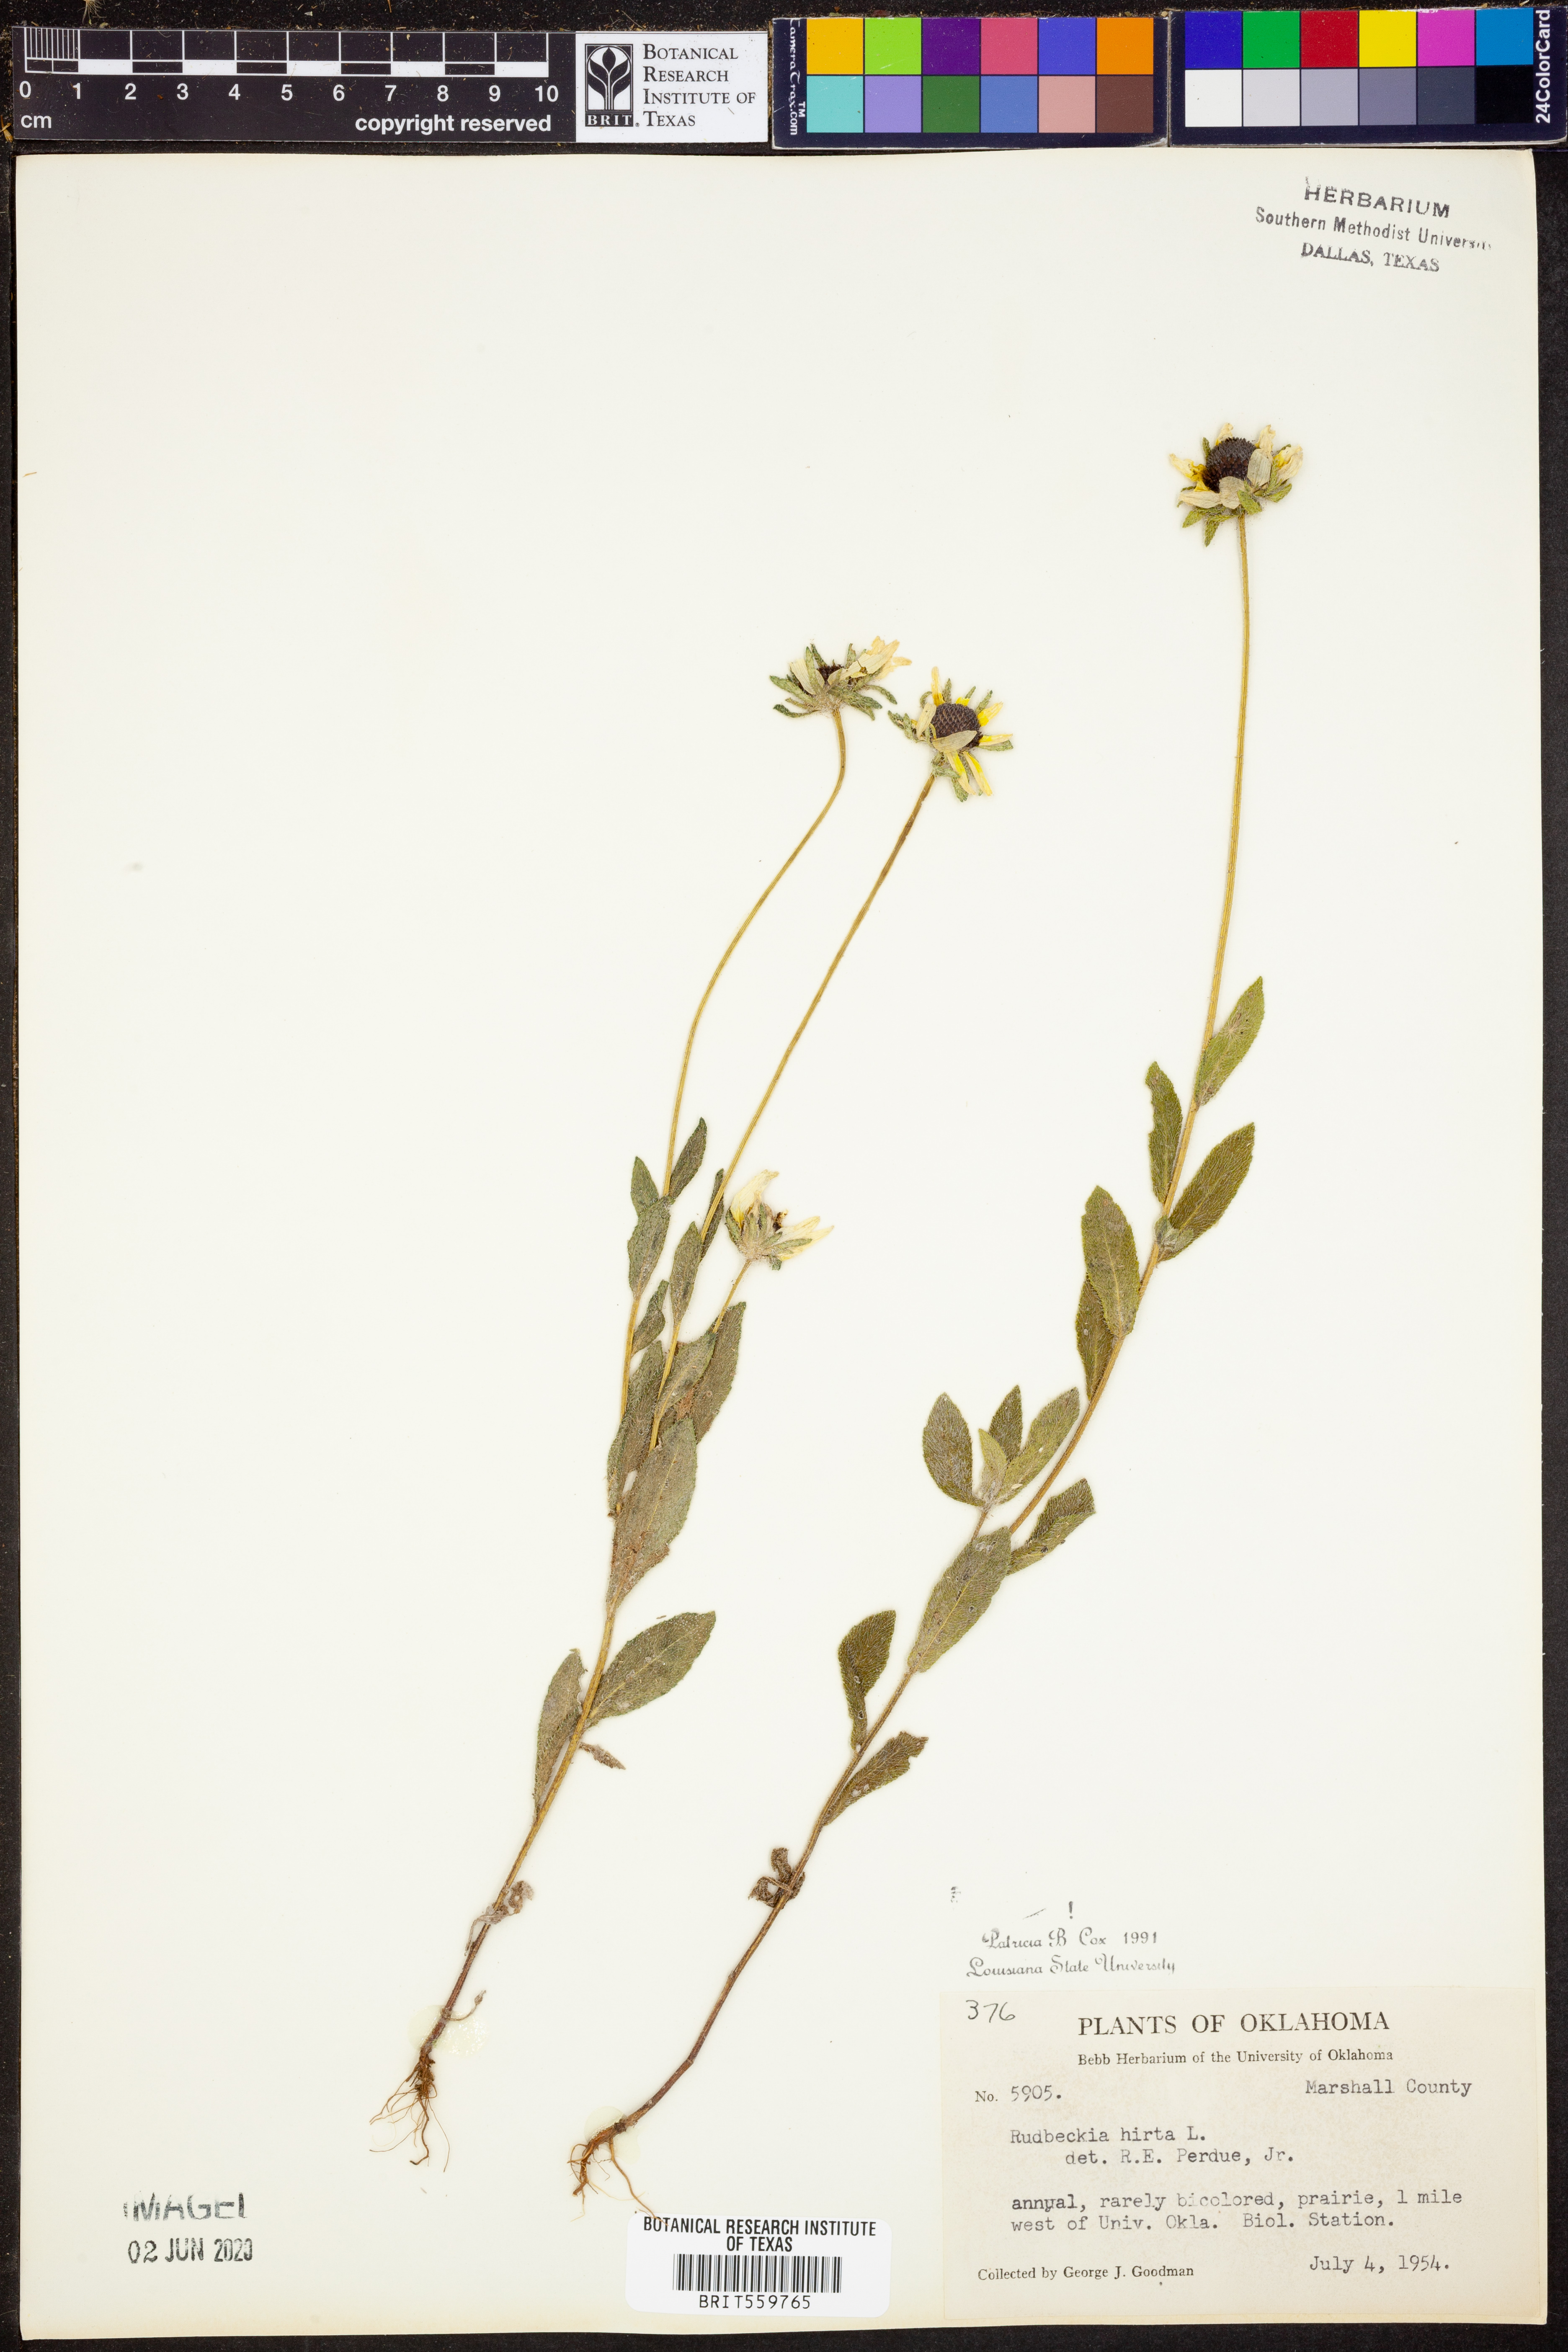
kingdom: Plantae
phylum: Tracheophyta
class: Magnoliopsida
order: Asterales
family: Asteraceae
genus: Rudbeckia
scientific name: Rudbeckia hirta
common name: Black-eyed-susan
